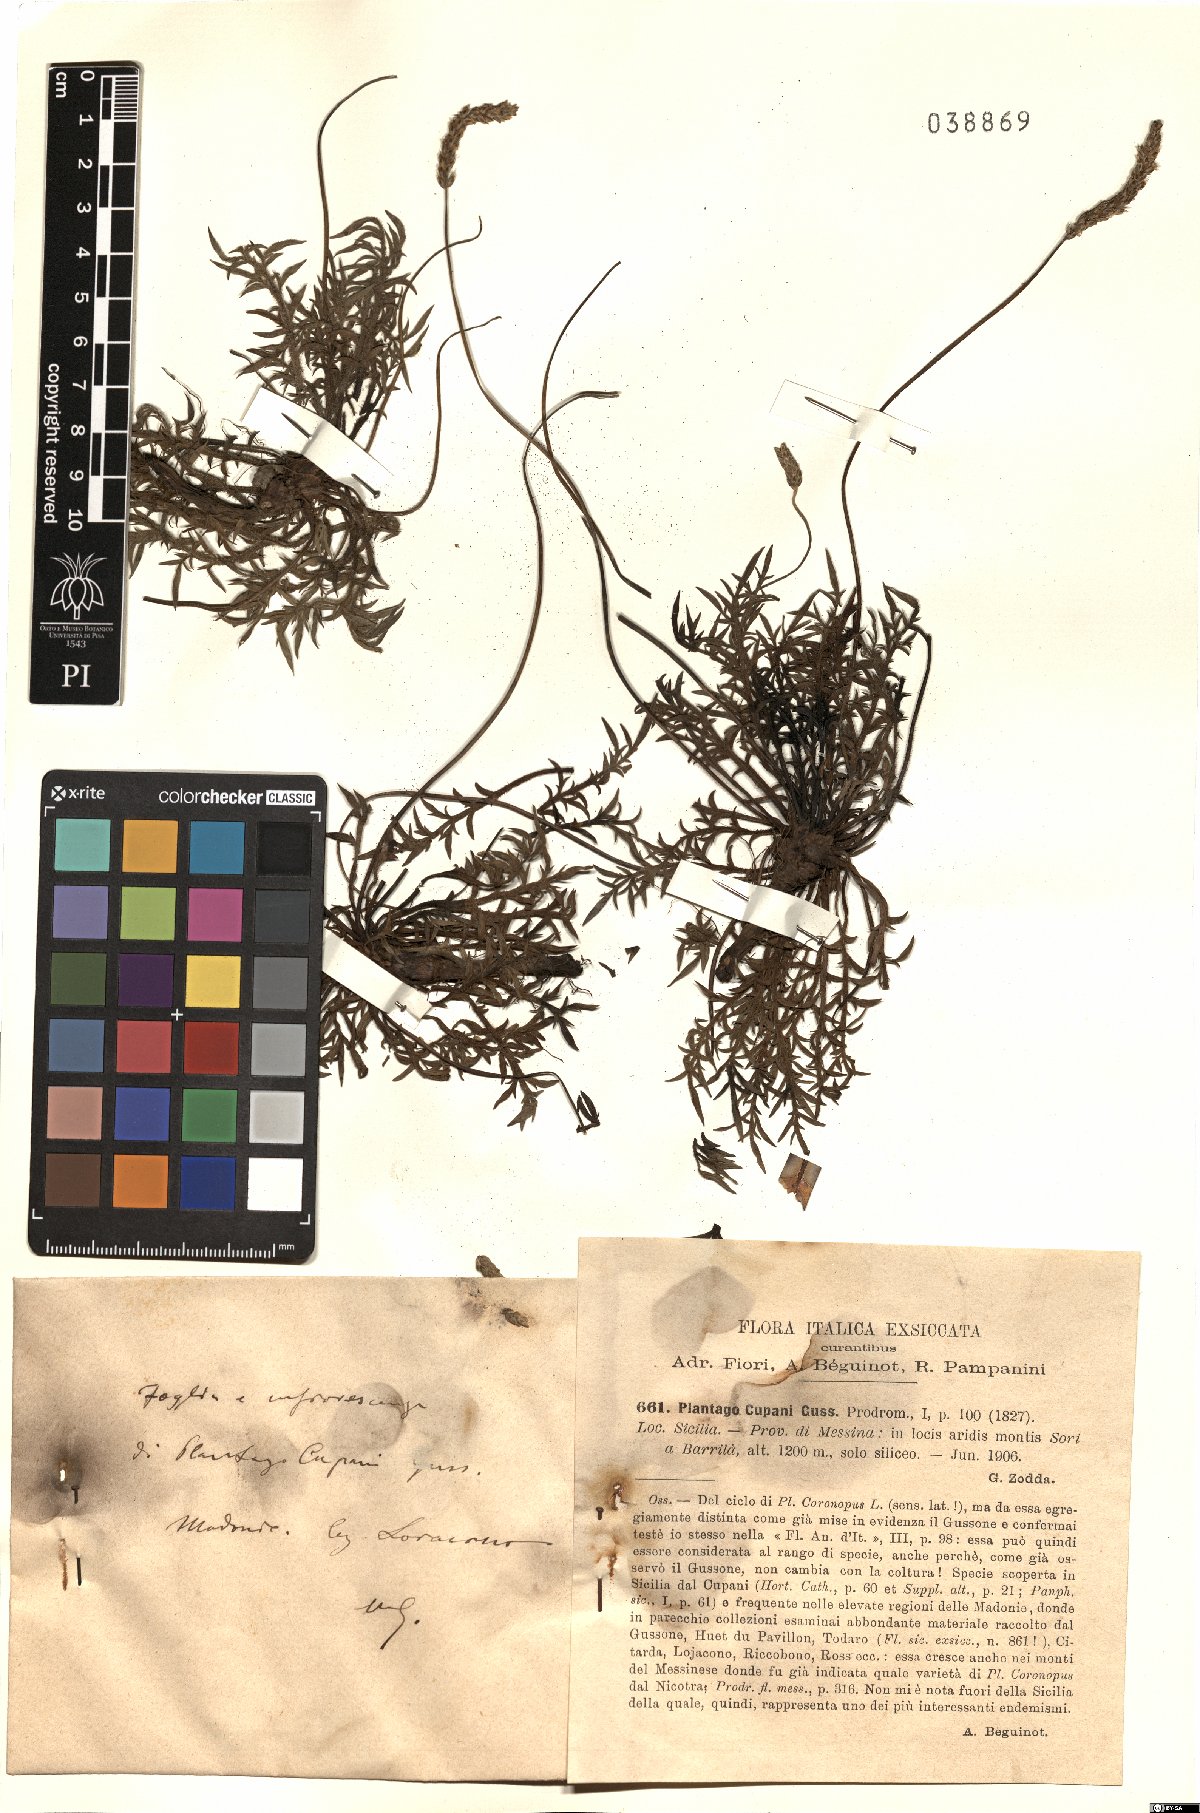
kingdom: Plantae
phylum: Tracheophyta
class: Magnoliopsida
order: Lamiales
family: Plantaginaceae
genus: Plantago
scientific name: Plantago coronopus
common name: Buck's-horn plantain
